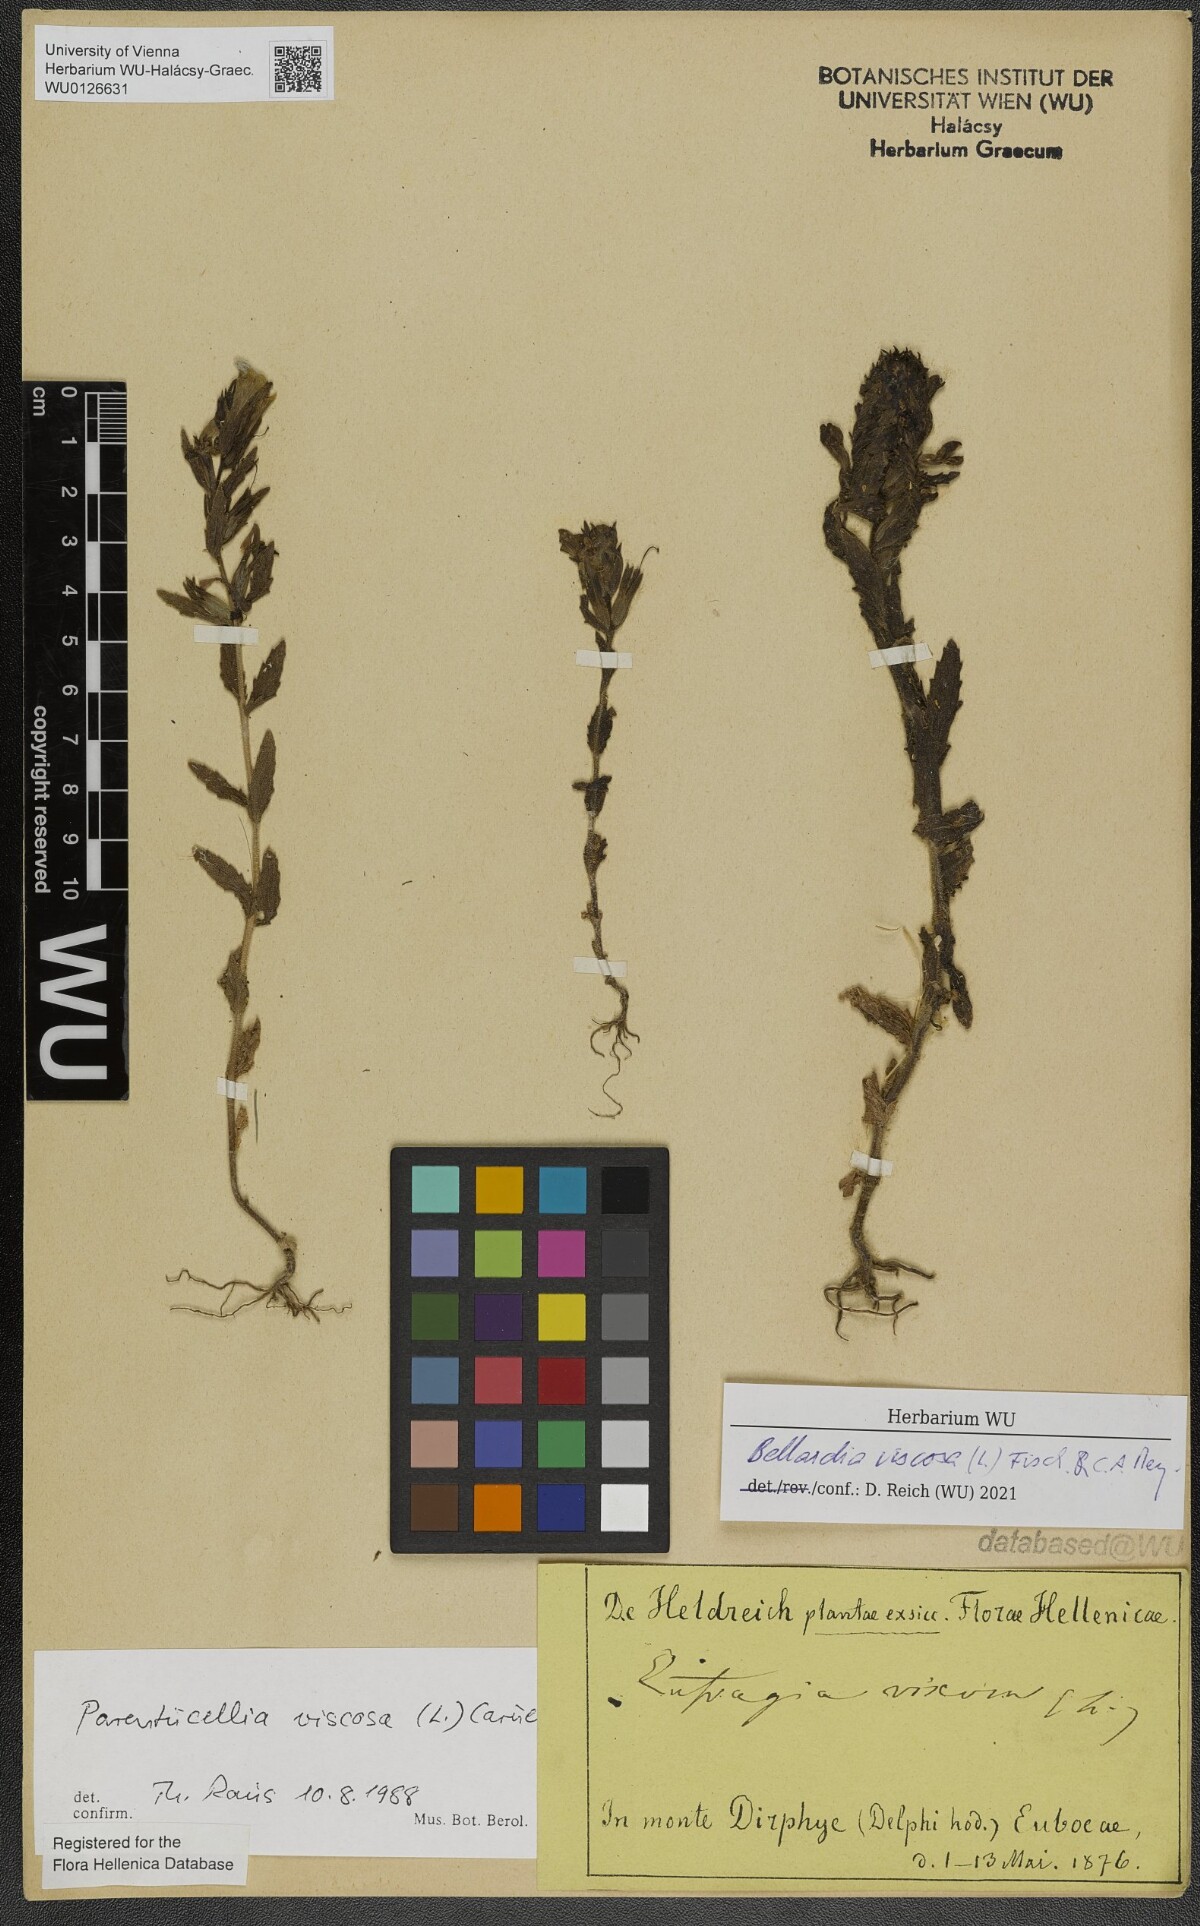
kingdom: Plantae
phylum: Tracheophyta
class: Magnoliopsida
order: Lamiales
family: Orobanchaceae
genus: Bellardia
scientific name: Bellardia viscosa
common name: Sticky parentucellia
